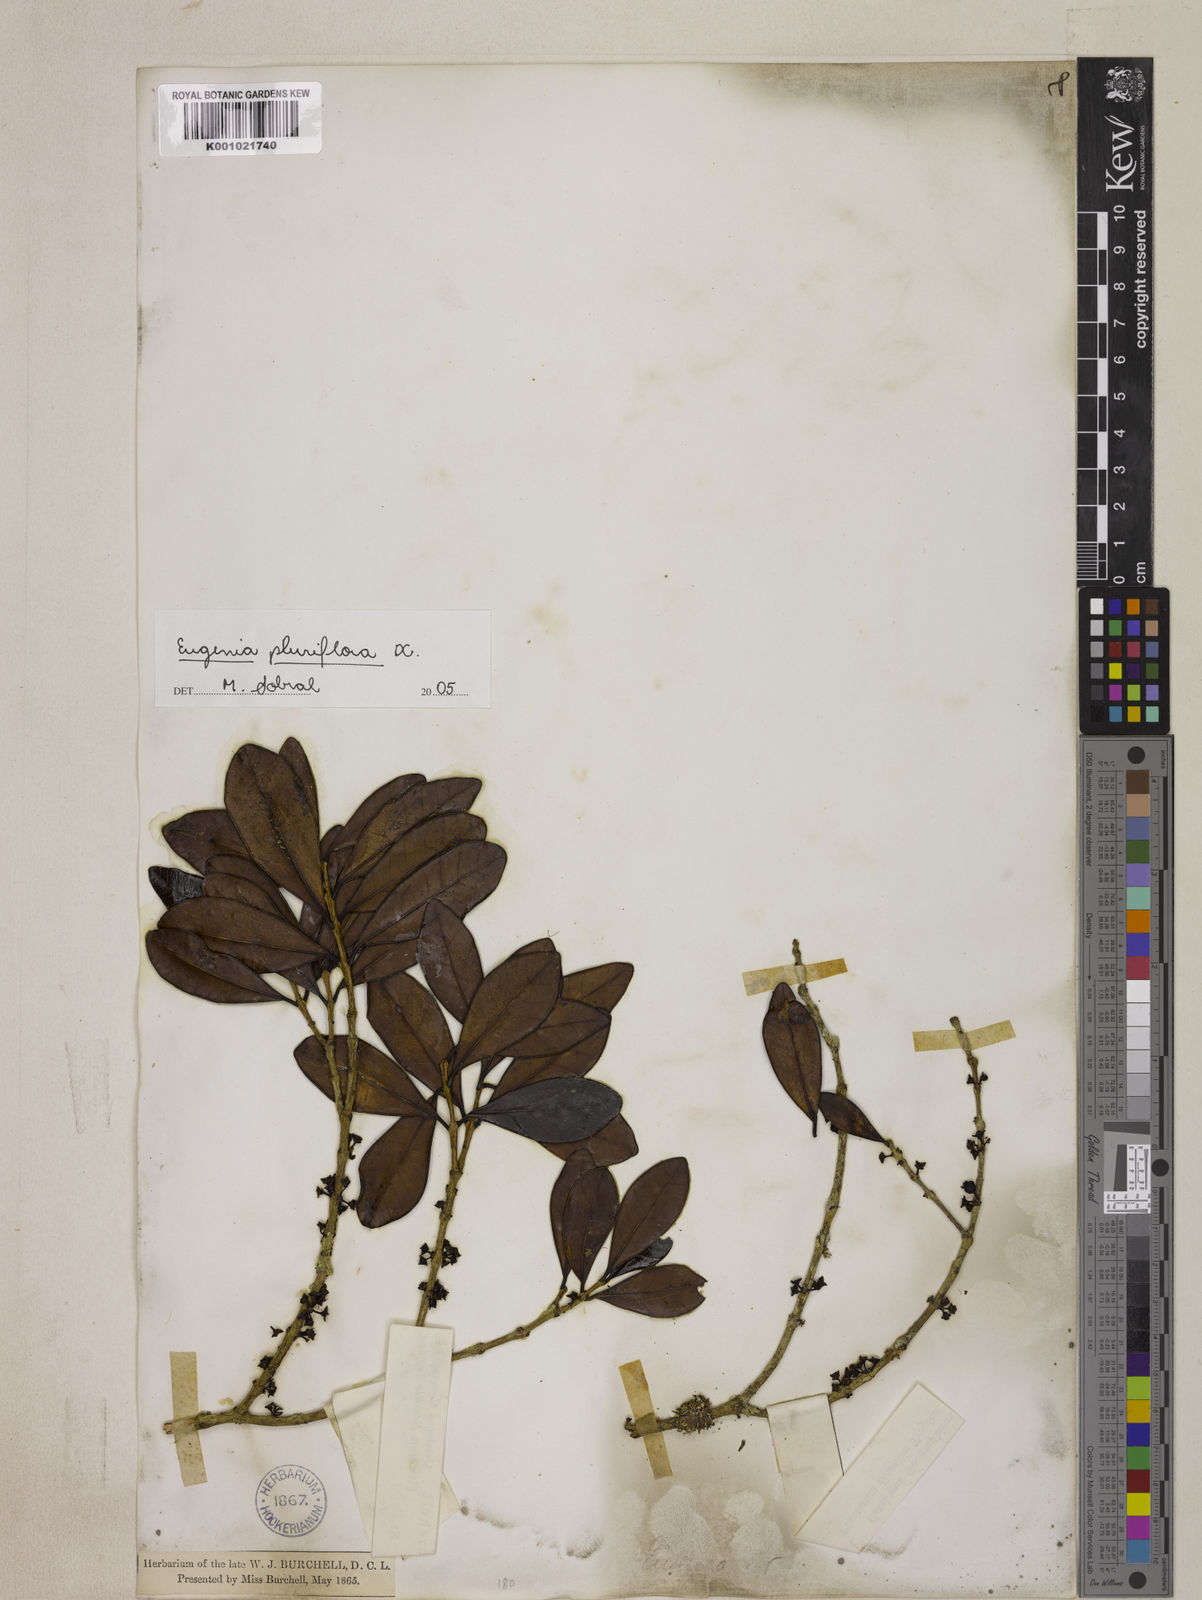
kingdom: Plantae
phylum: Tracheophyta
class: Magnoliopsida
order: Myrtales
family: Myrtaceae
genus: Eugenia
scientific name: Eugenia pluriflora
